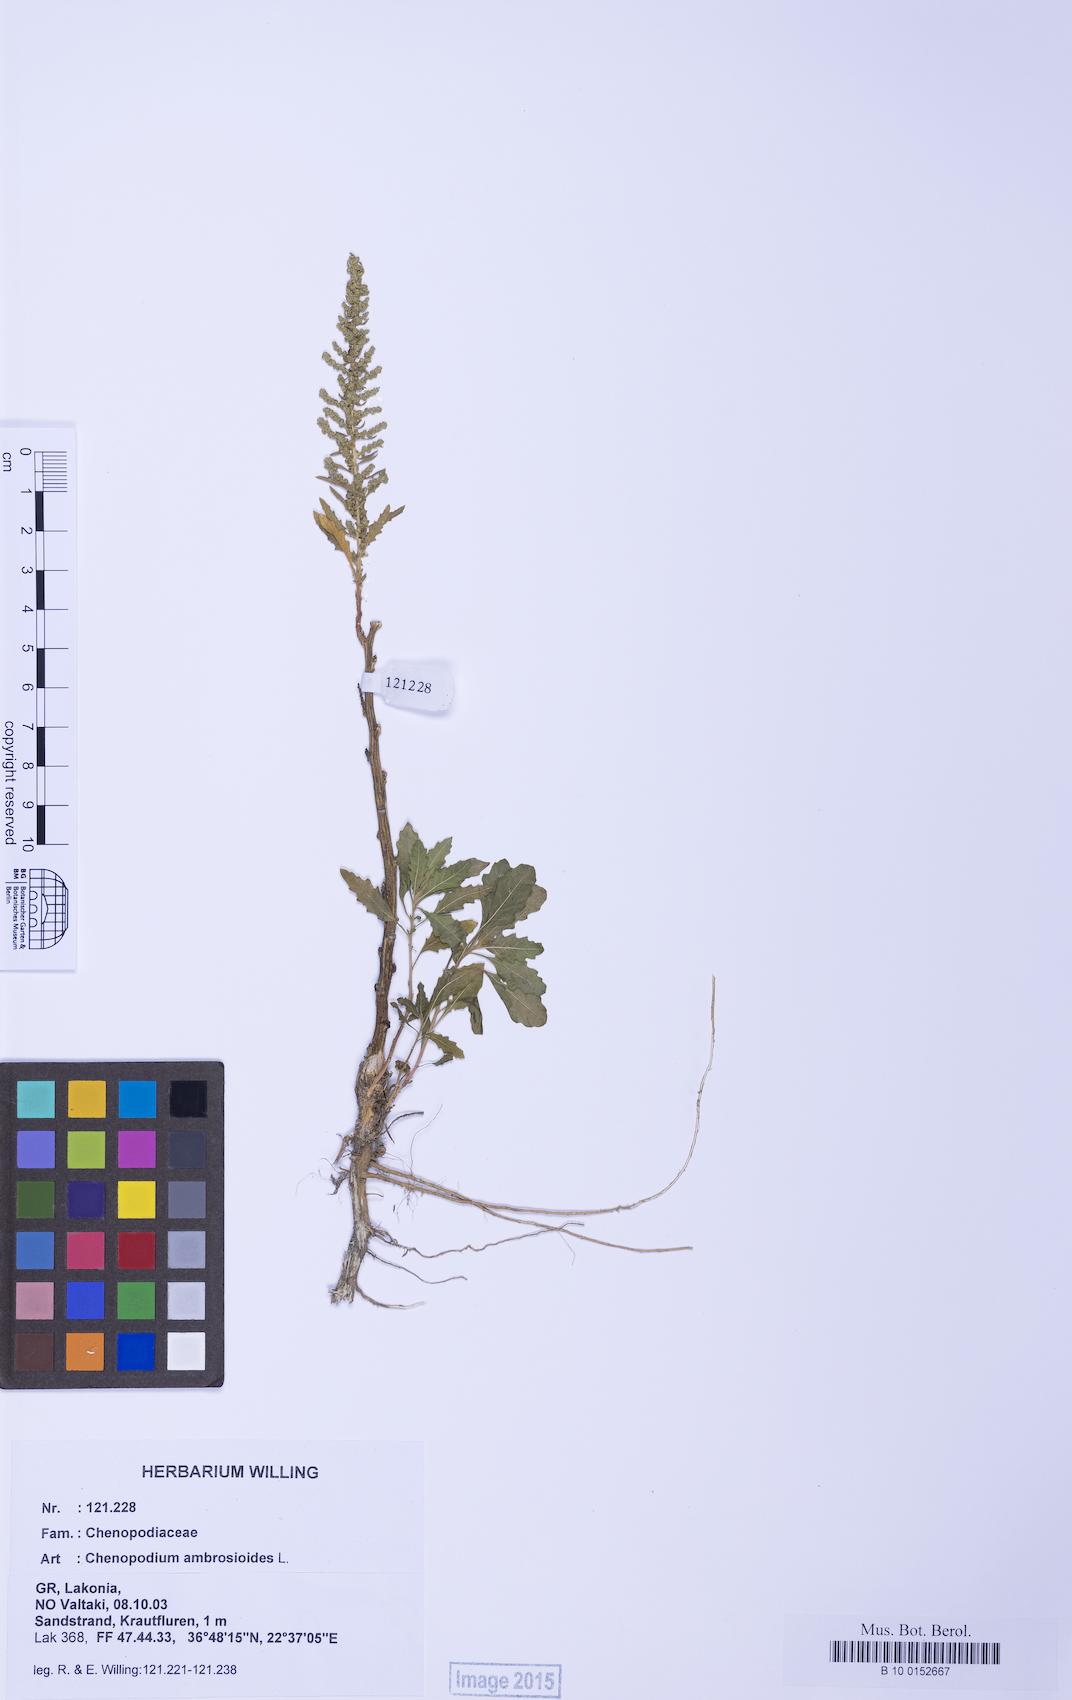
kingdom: Plantae
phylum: Tracheophyta
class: Magnoliopsida
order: Caryophyllales
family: Amaranthaceae
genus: Dysphania
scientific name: Dysphania ambrosioides
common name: Wormseed
